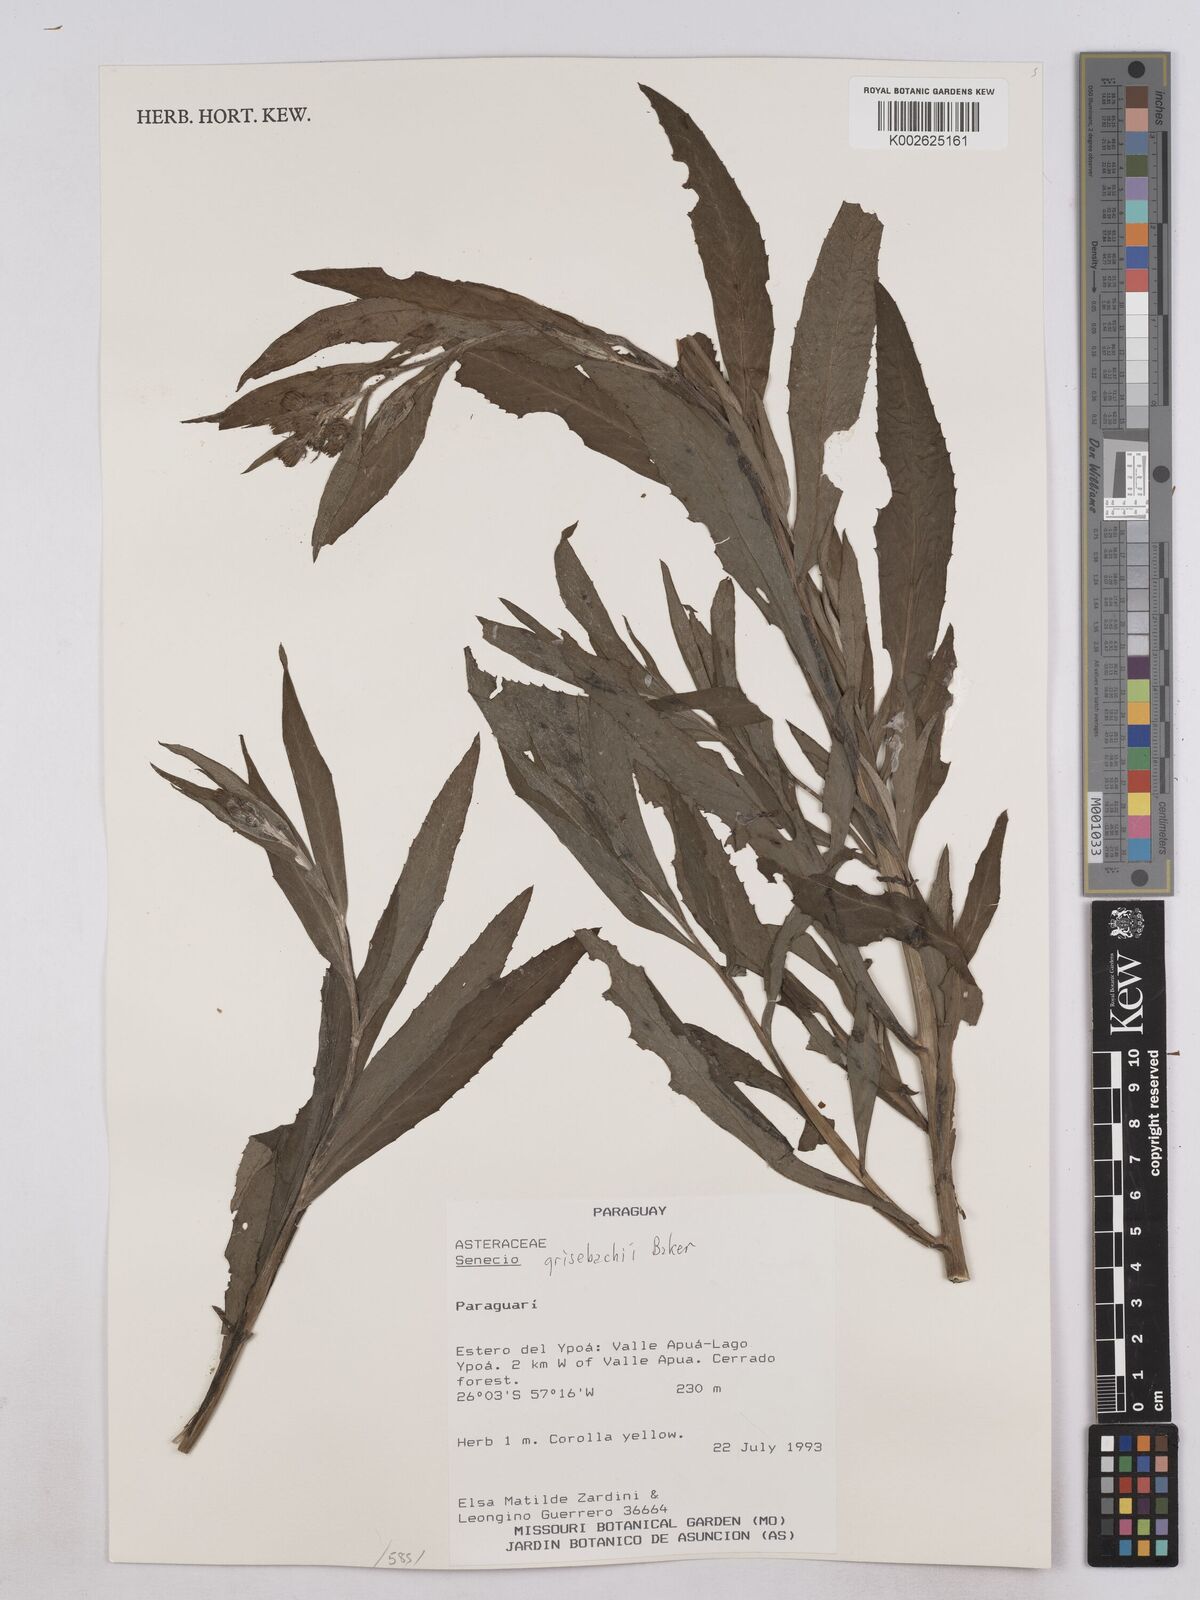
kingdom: Plantae
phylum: Tracheophyta
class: Magnoliopsida
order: Asterales
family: Asteraceae
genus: Senecio
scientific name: Senecio grisebachii
